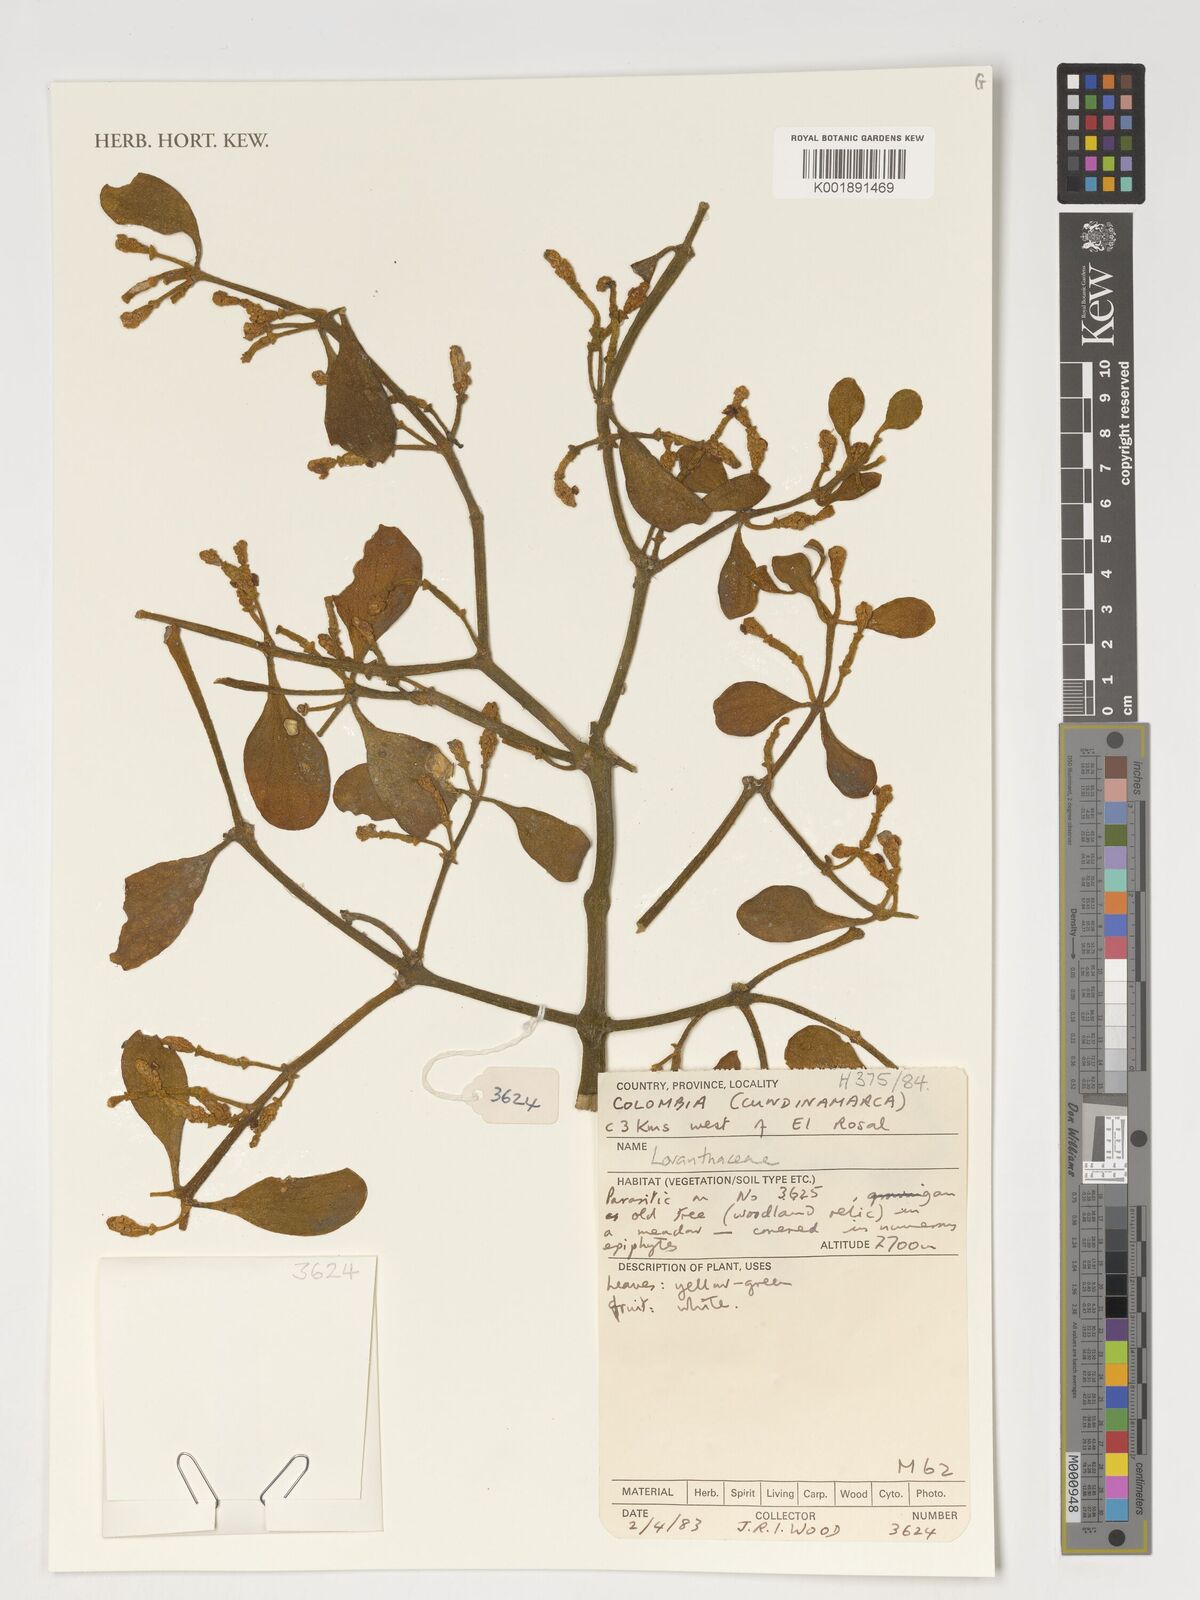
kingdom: Plantae
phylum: Tracheophyta
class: Magnoliopsida
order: Santalales
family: Loranthaceae
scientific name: Loranthaceae
